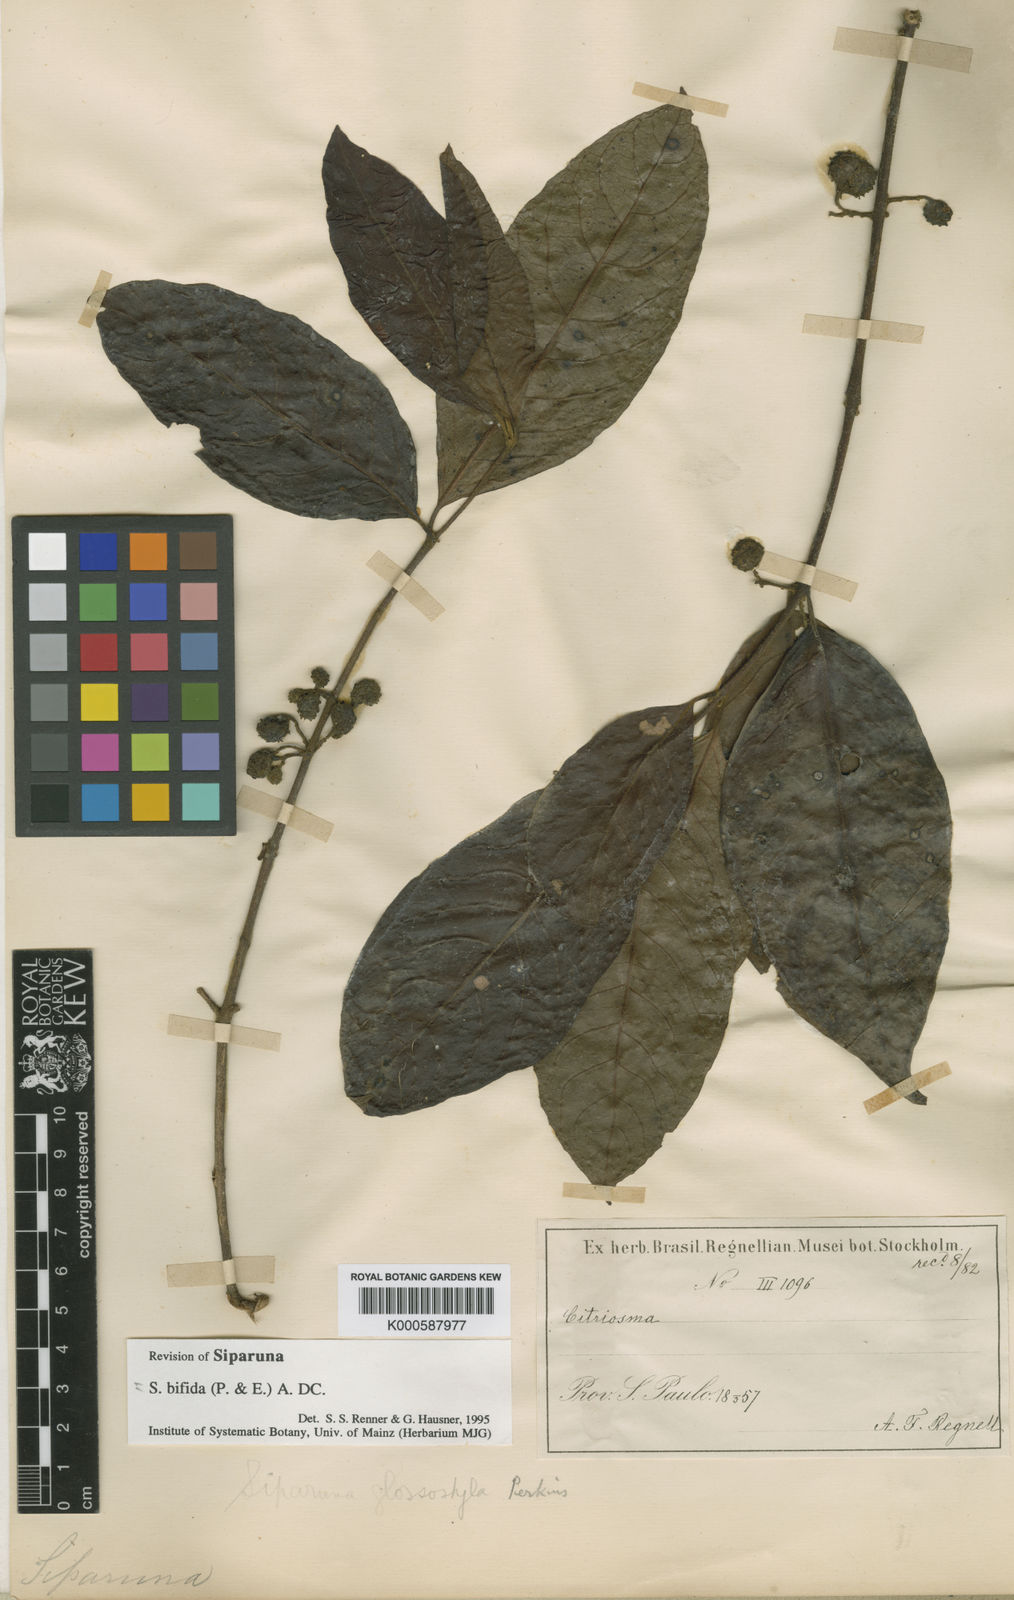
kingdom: Plantae
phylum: Tracheophyta
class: Magnoliopsida
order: Laurales
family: Siparunaceae
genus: Siparuna
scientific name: Siparuna bifida
